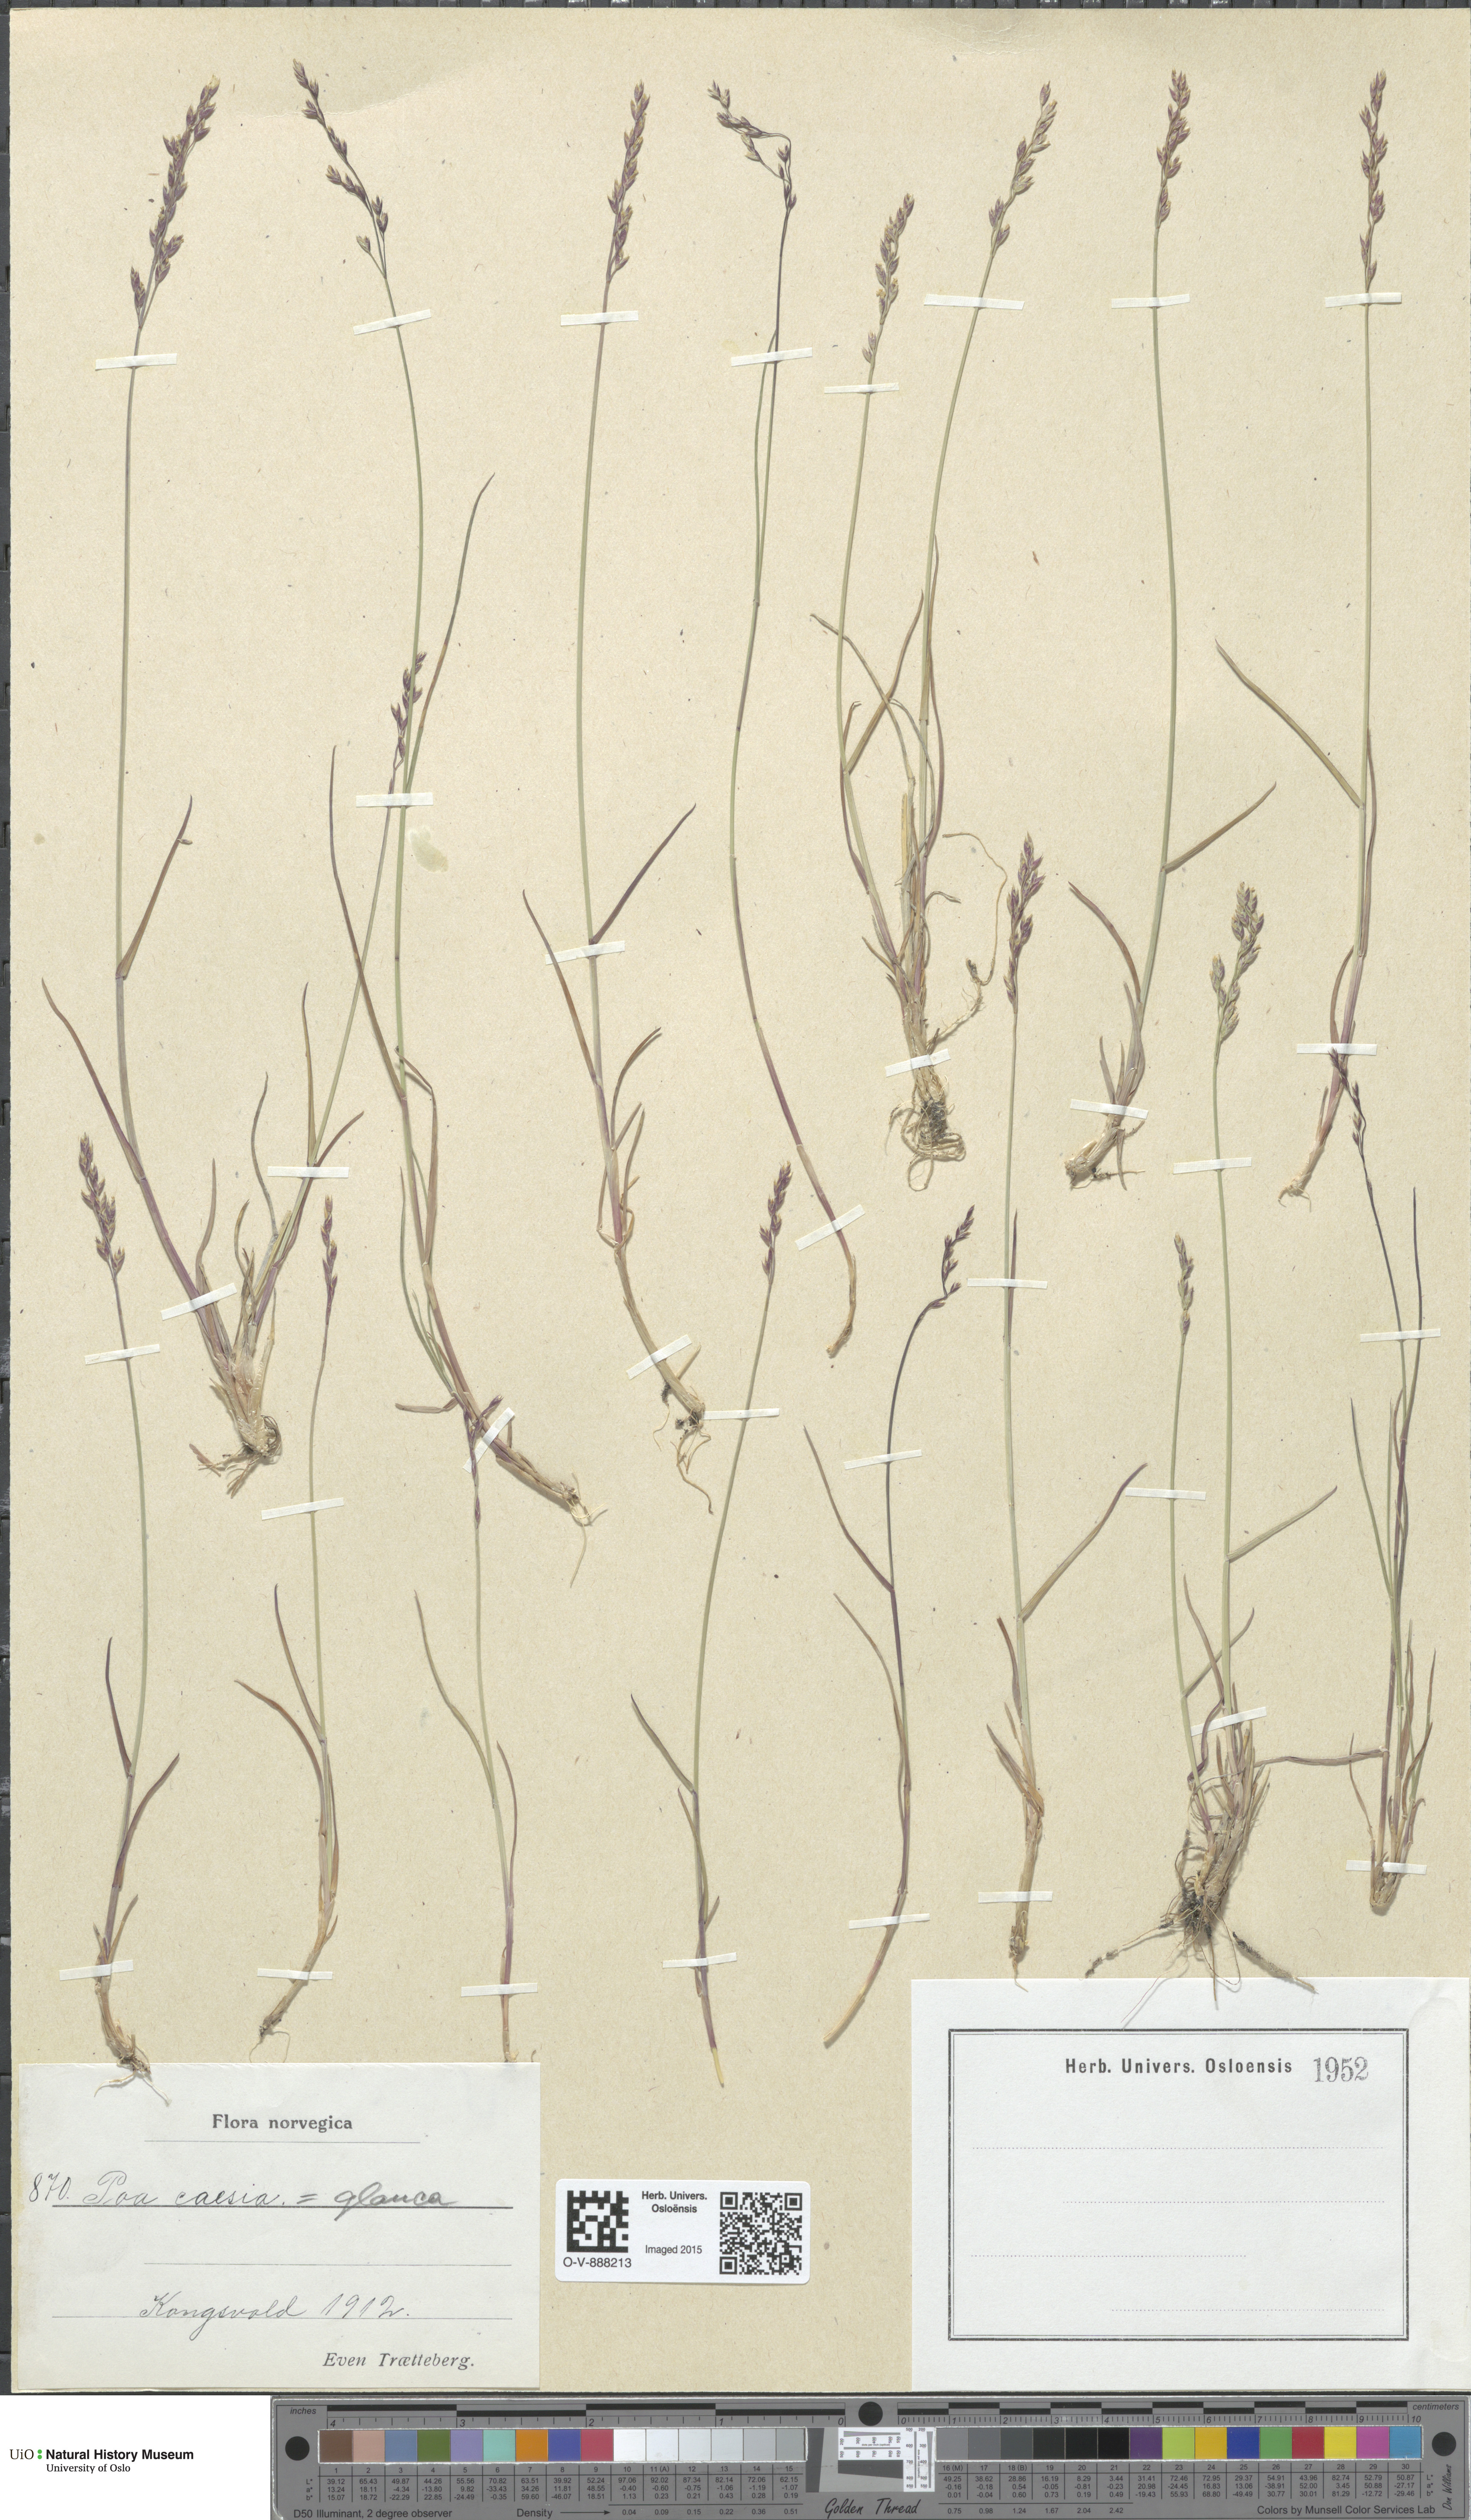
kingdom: Plantae
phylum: Tracheophyta
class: Liliopsida
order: Poales
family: Poaceae
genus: Poa
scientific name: Poa glauca
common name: Glaucous bluegrass
